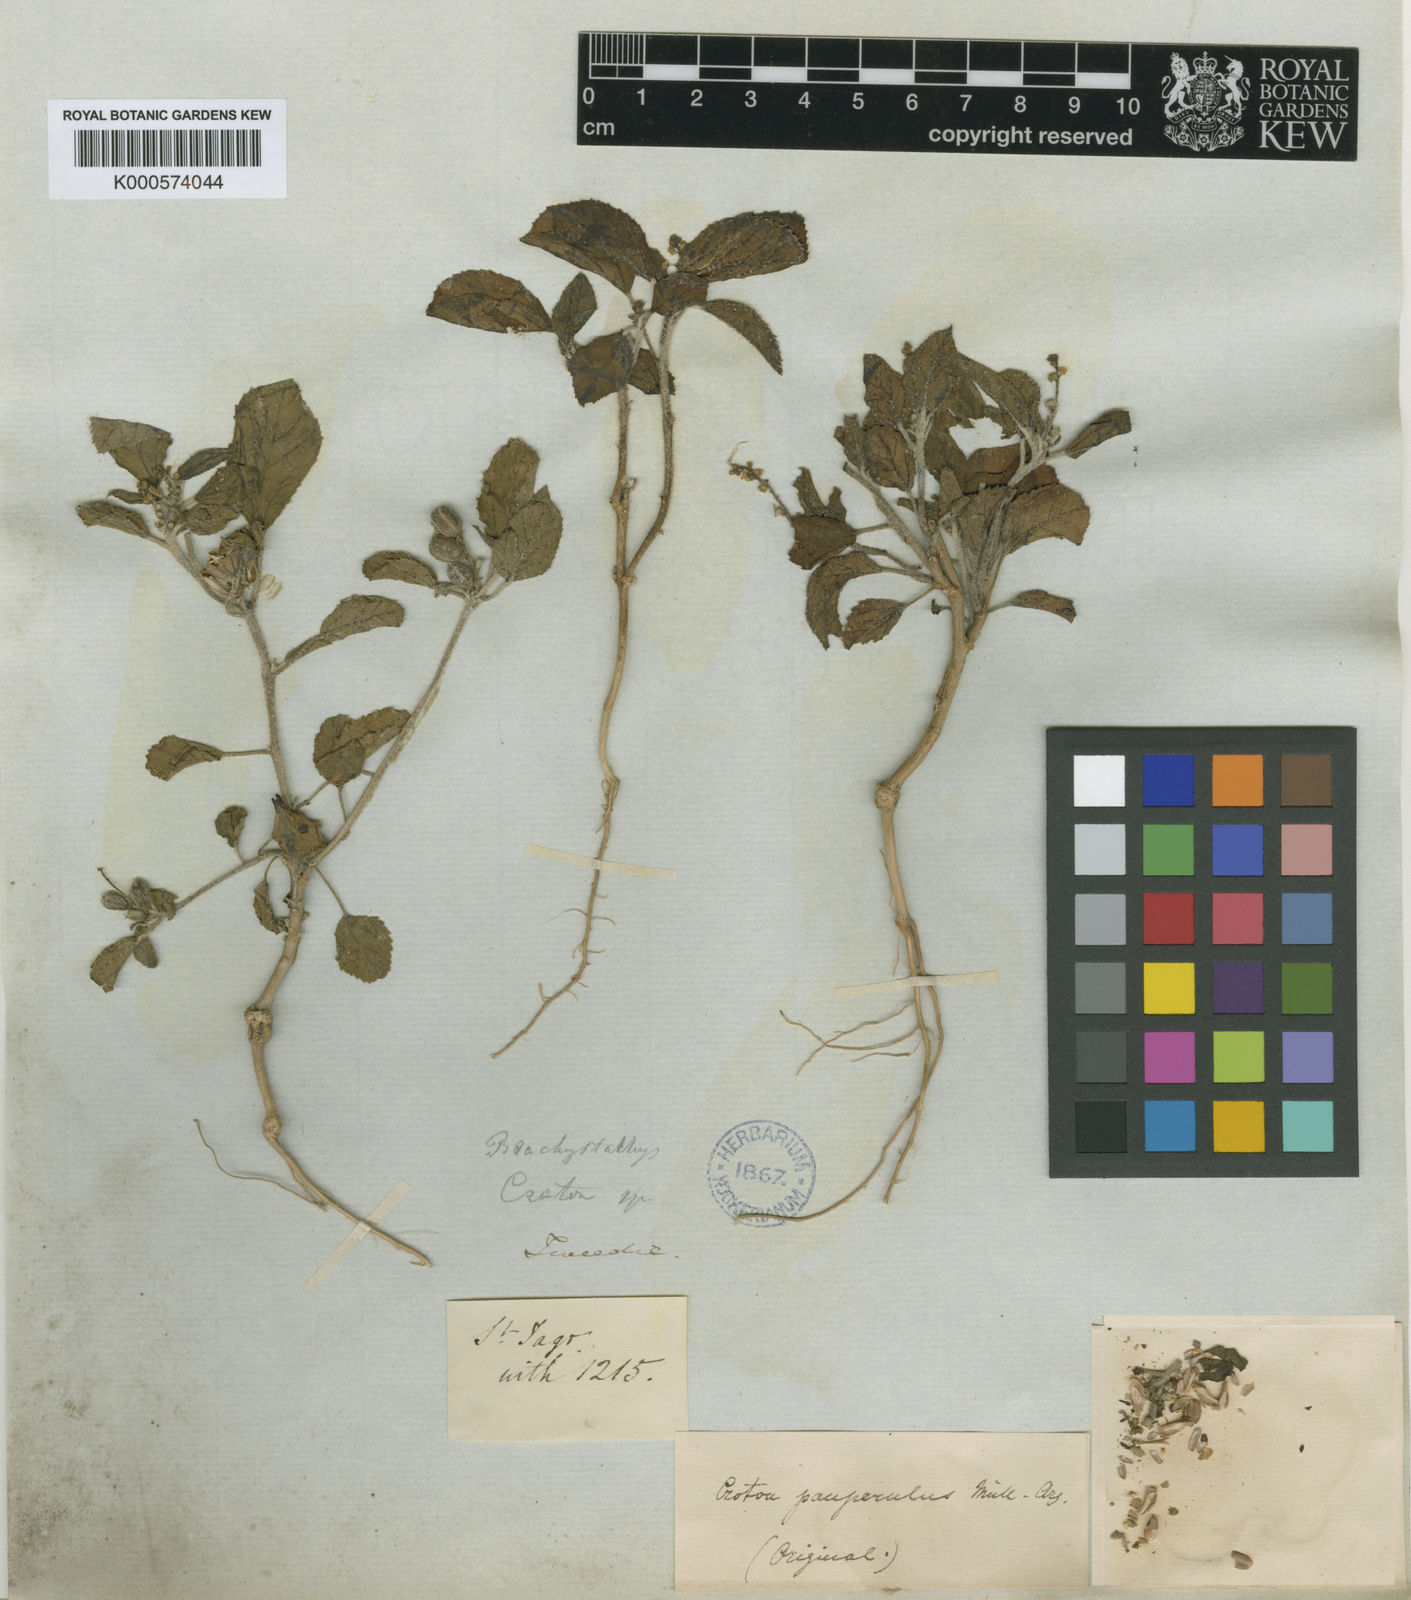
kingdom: Plantae
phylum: Tracheophyta
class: Magnoliopsida
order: Malpighiales
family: Euphorbiaceae
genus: Croton
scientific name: Croton
